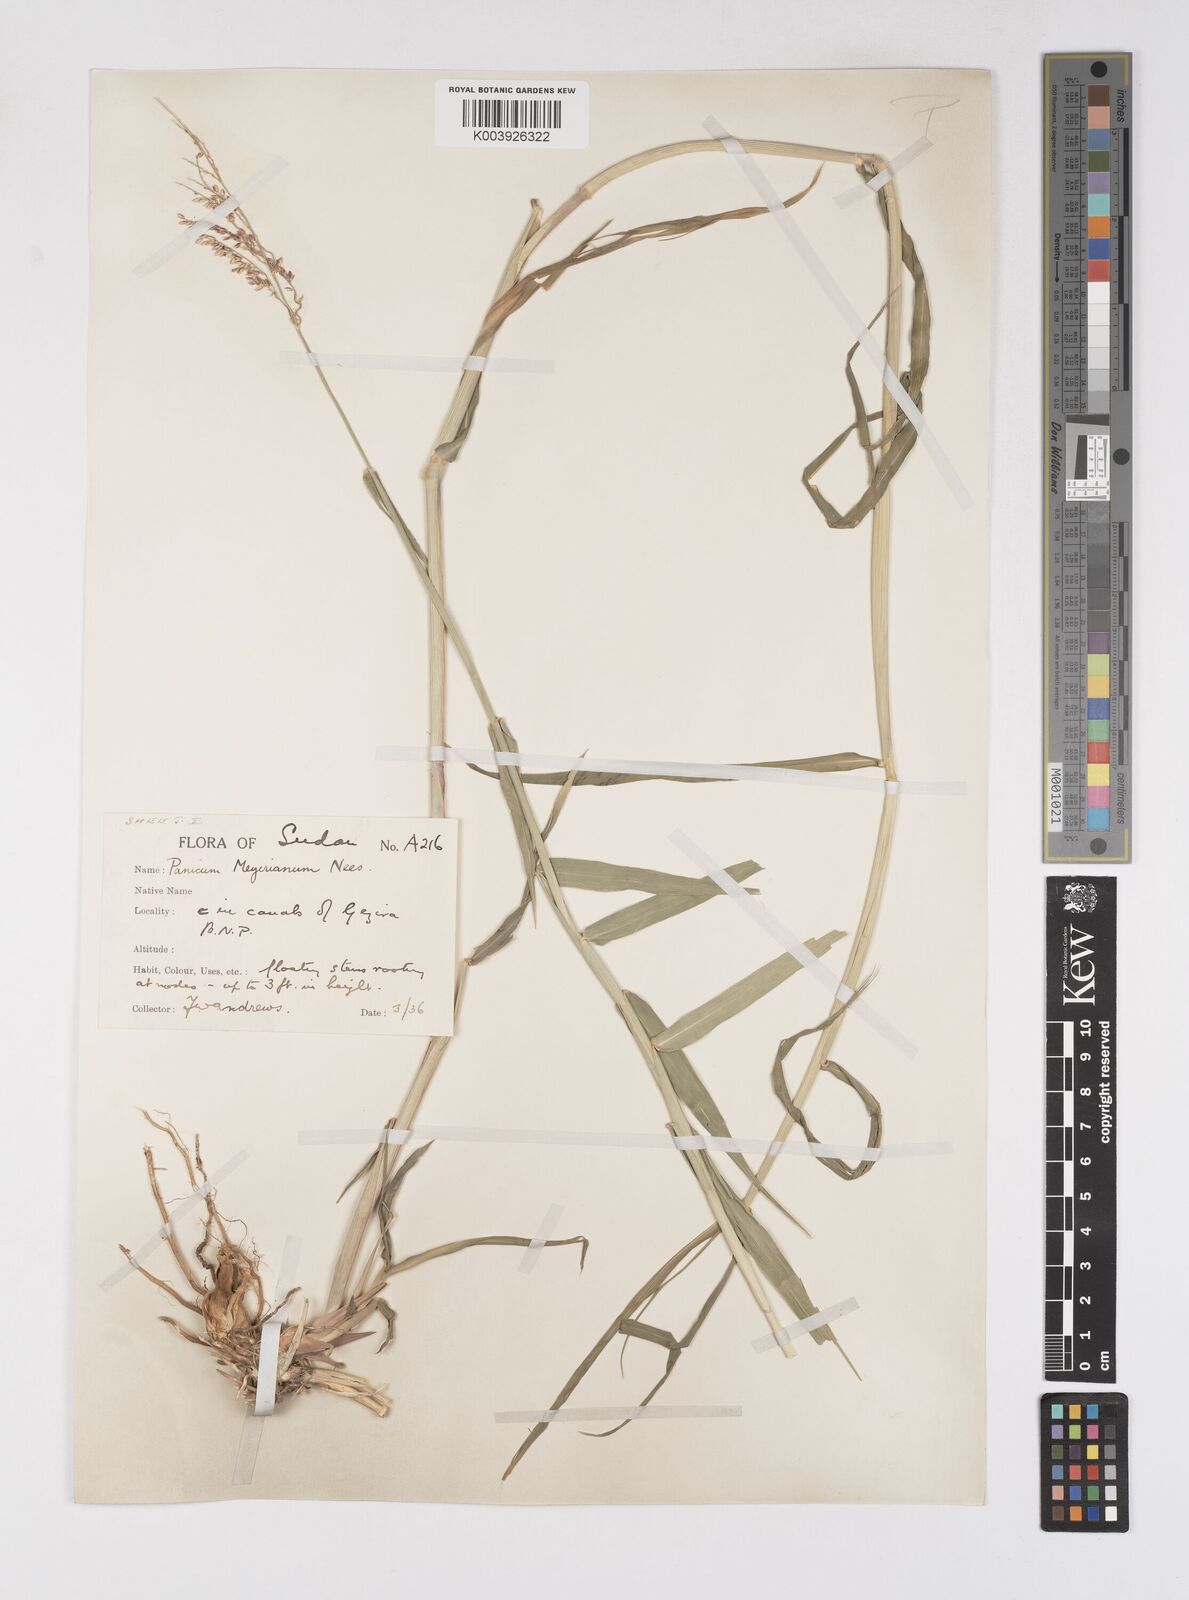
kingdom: Plantae
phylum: Tracheophyta
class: Liliopsida
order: Poales
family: Poaceae
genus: Eriochloa
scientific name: Eriochloa meyeriana
